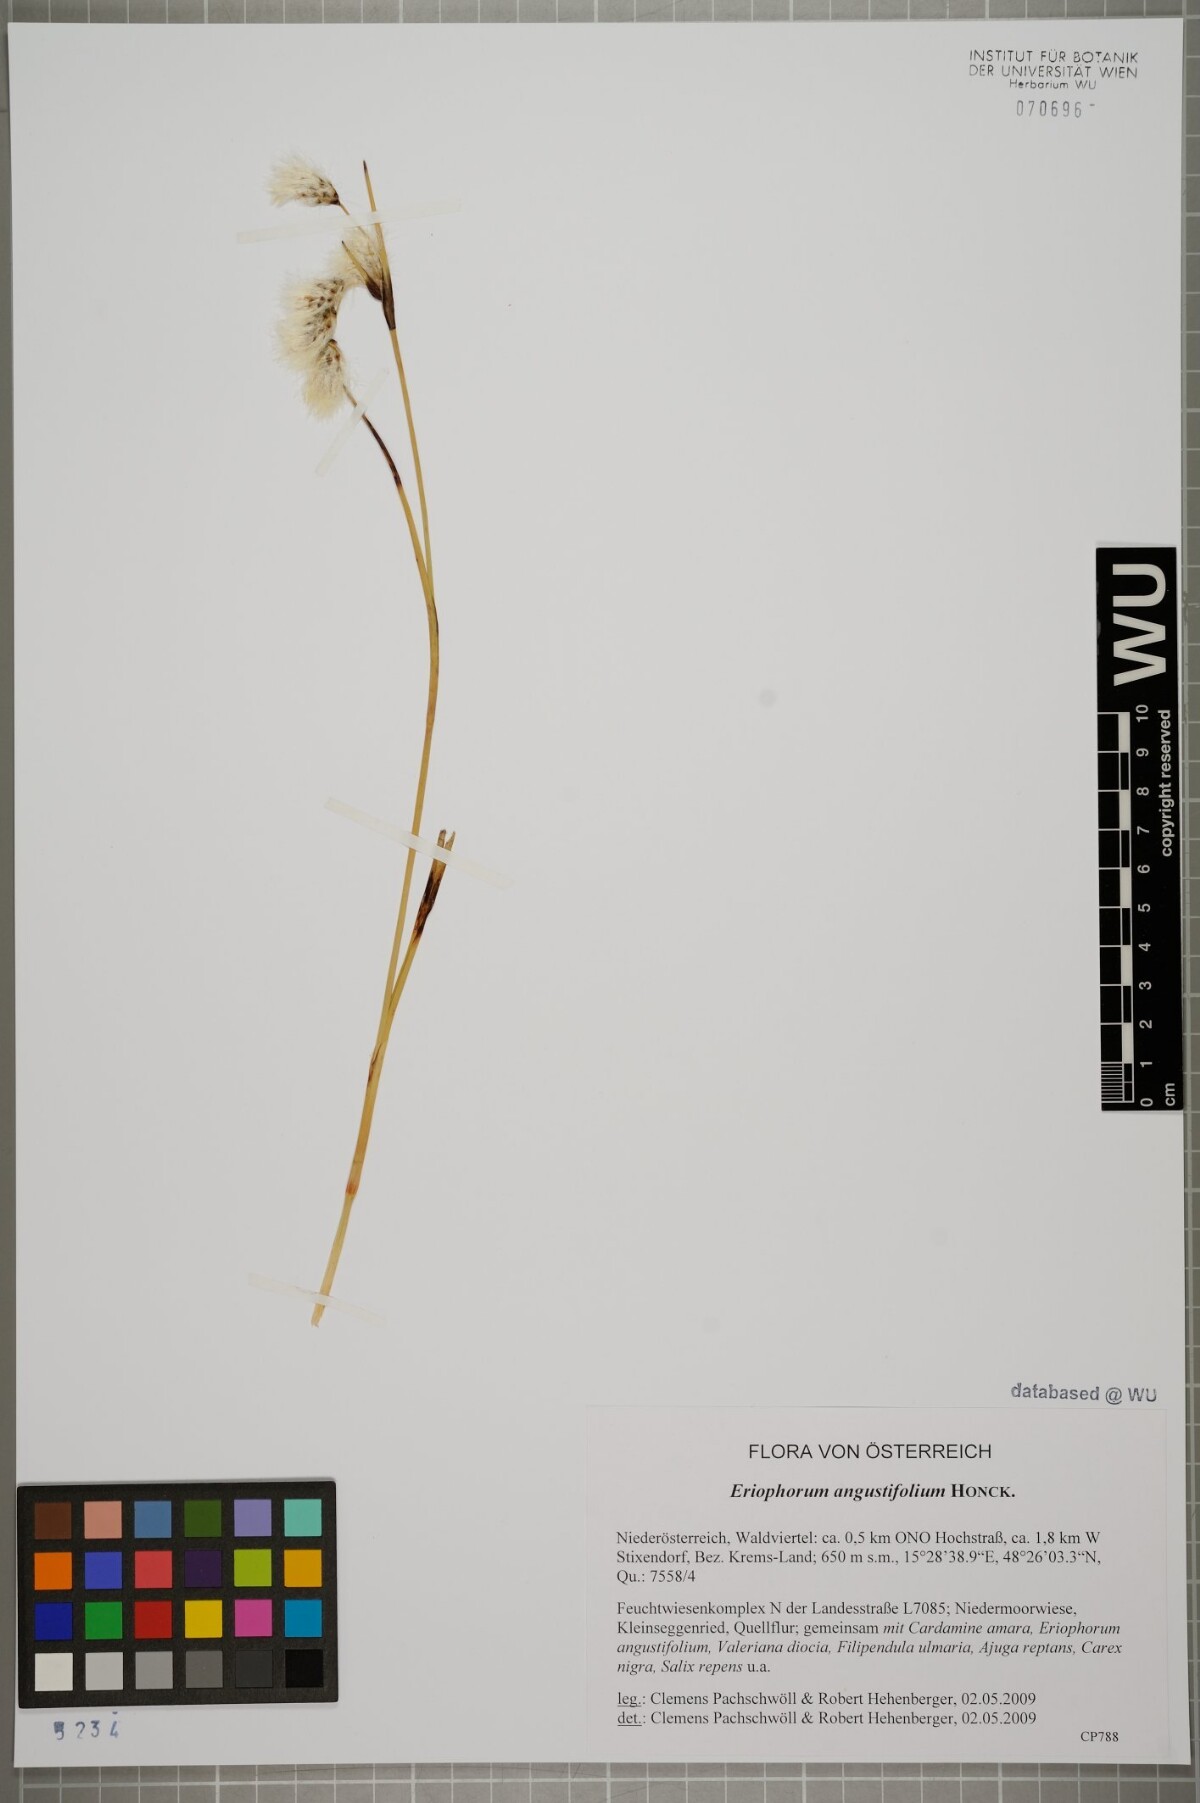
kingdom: Plantae
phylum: Tracheophyta
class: Liliopsida
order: Poales
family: Cyperaceae
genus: Eriophorum
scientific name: Eriophorum angustifolium
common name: Common cottongrass
